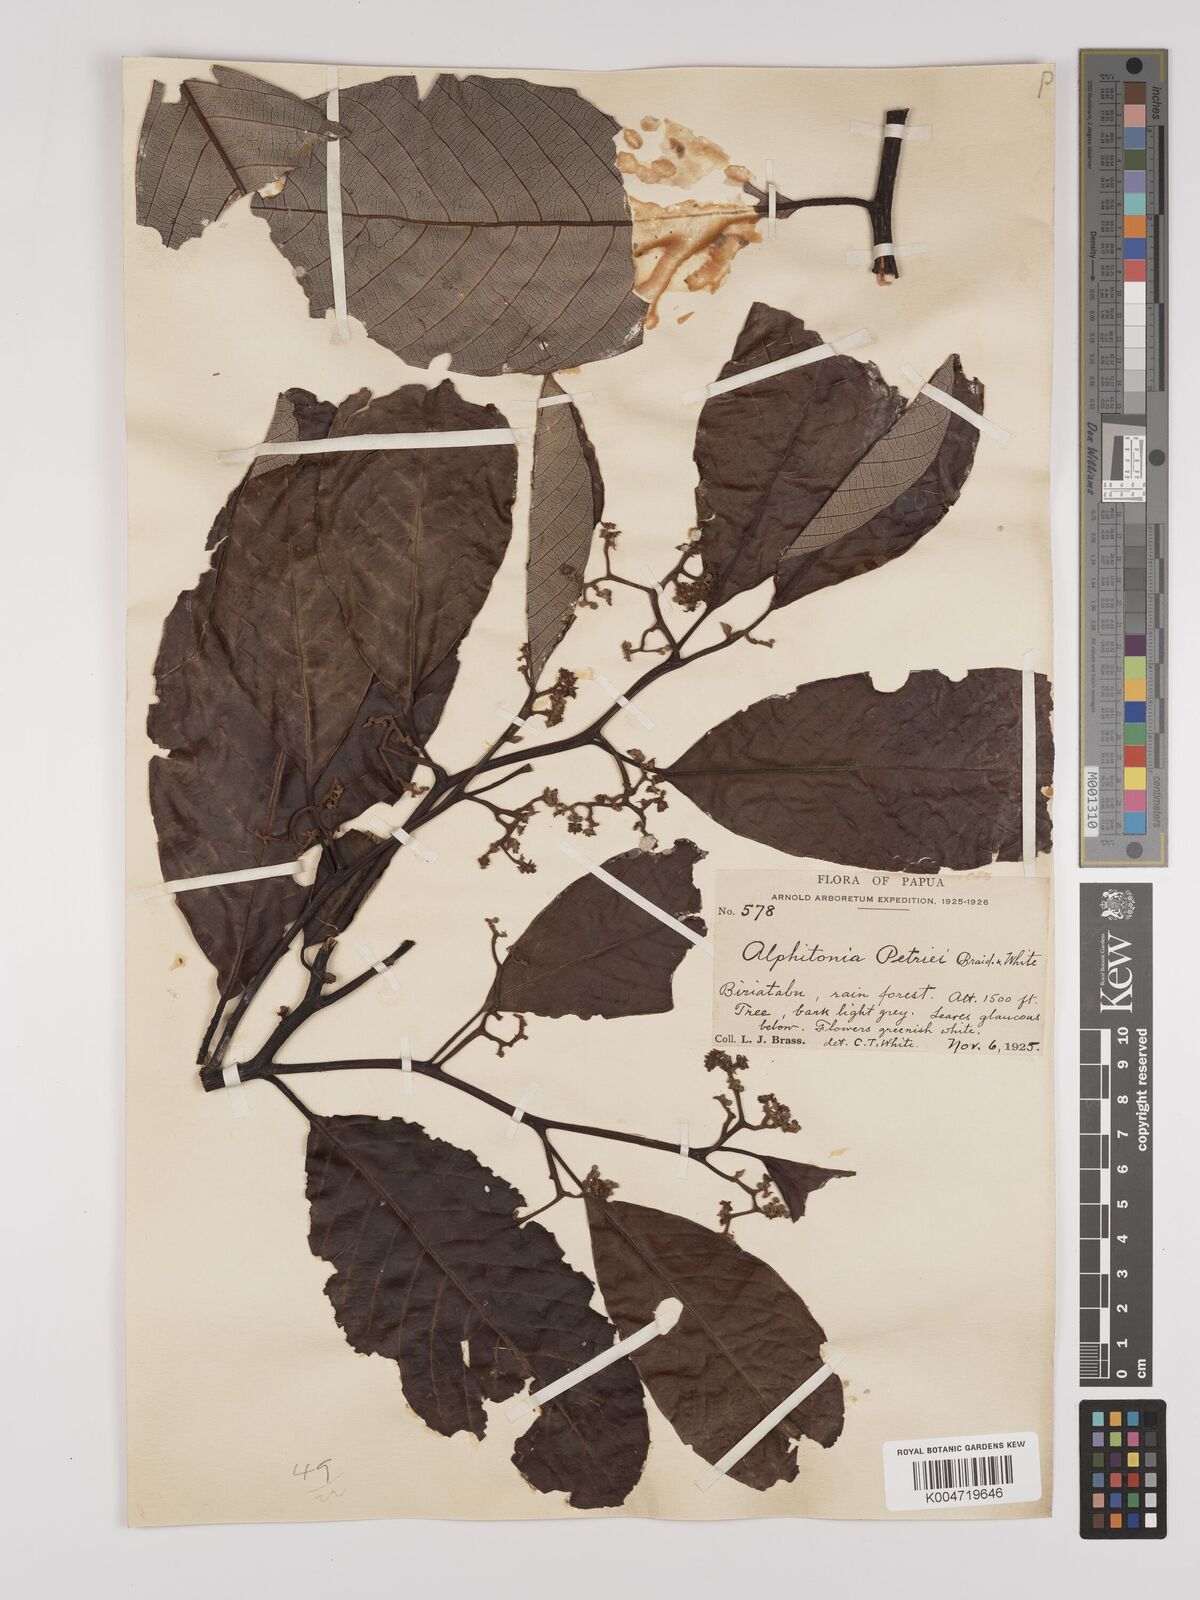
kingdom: Plantae
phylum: Tracheophyta
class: Magnoliopsida
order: Rosales
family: Rhamnaceae
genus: Alphitonia
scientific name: Alphitonia petriei
